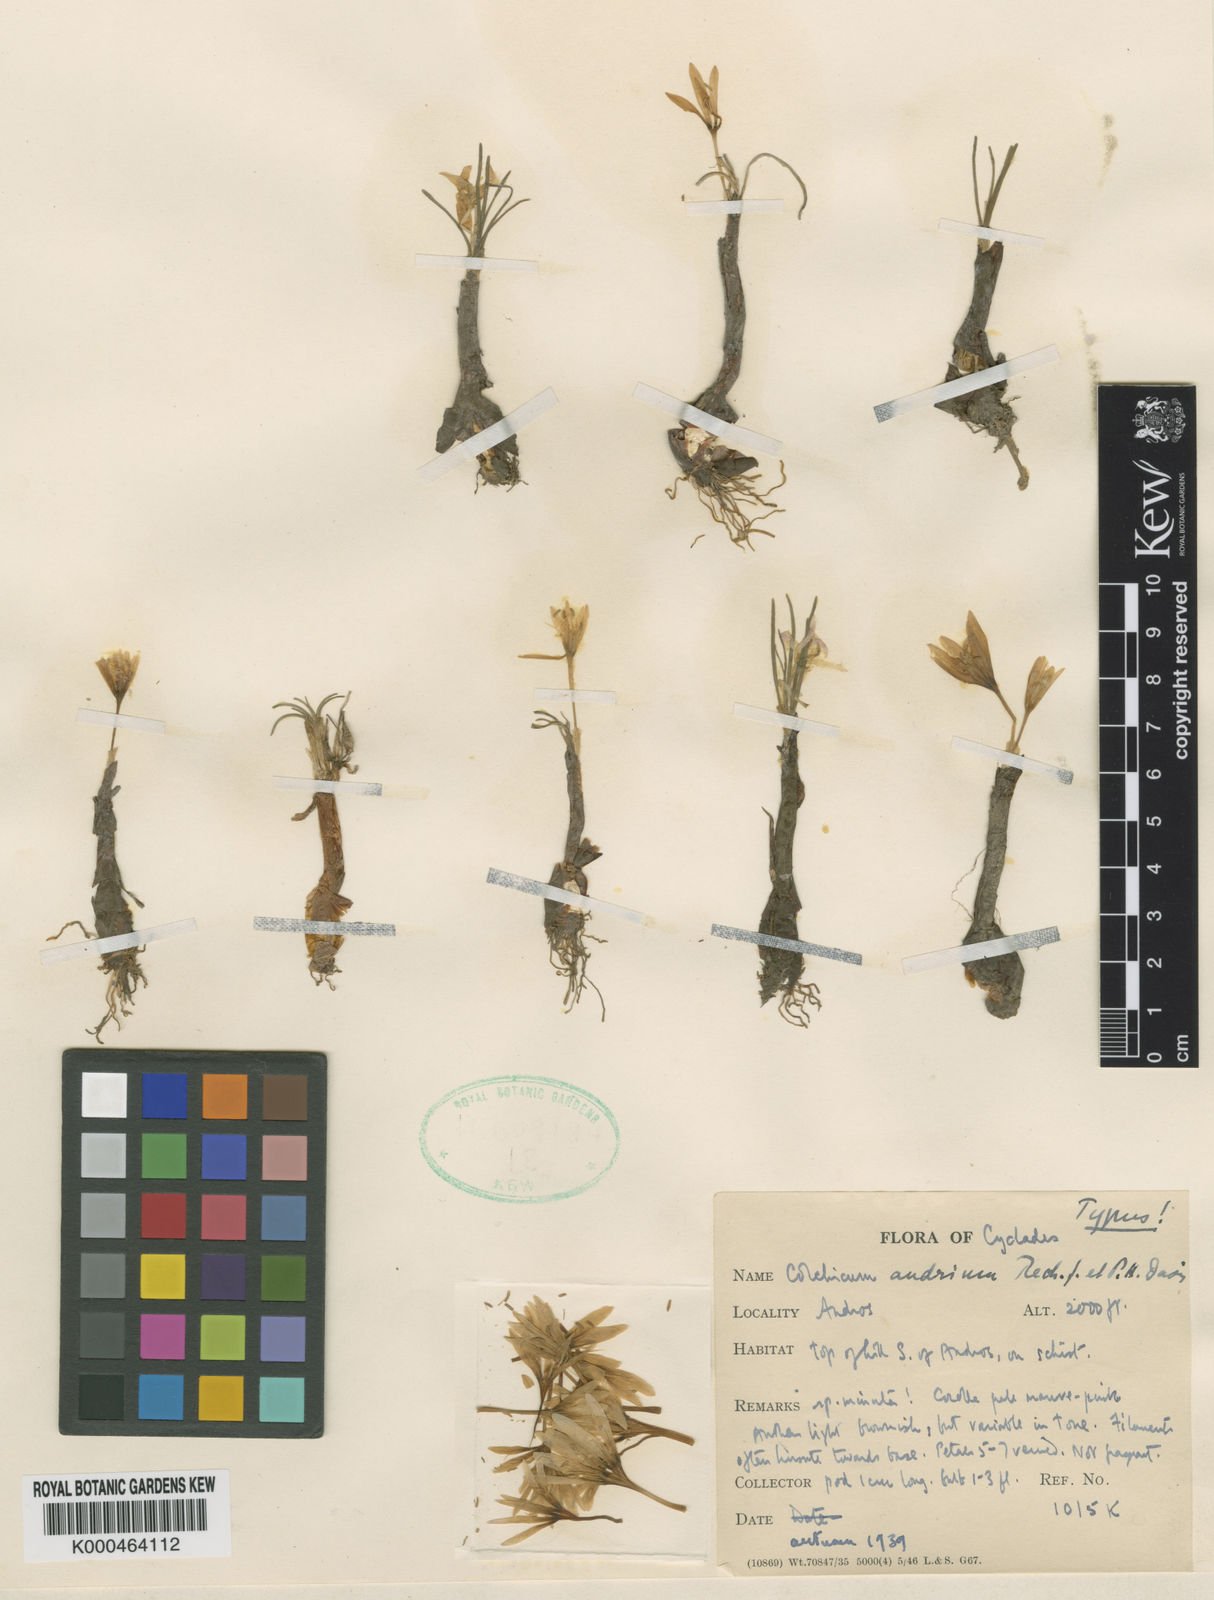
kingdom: Plantae
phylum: Tracheophyta
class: Liliopsida
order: Liliales
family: Colchicaceae
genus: Colchicum
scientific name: Colchicum pusillum
